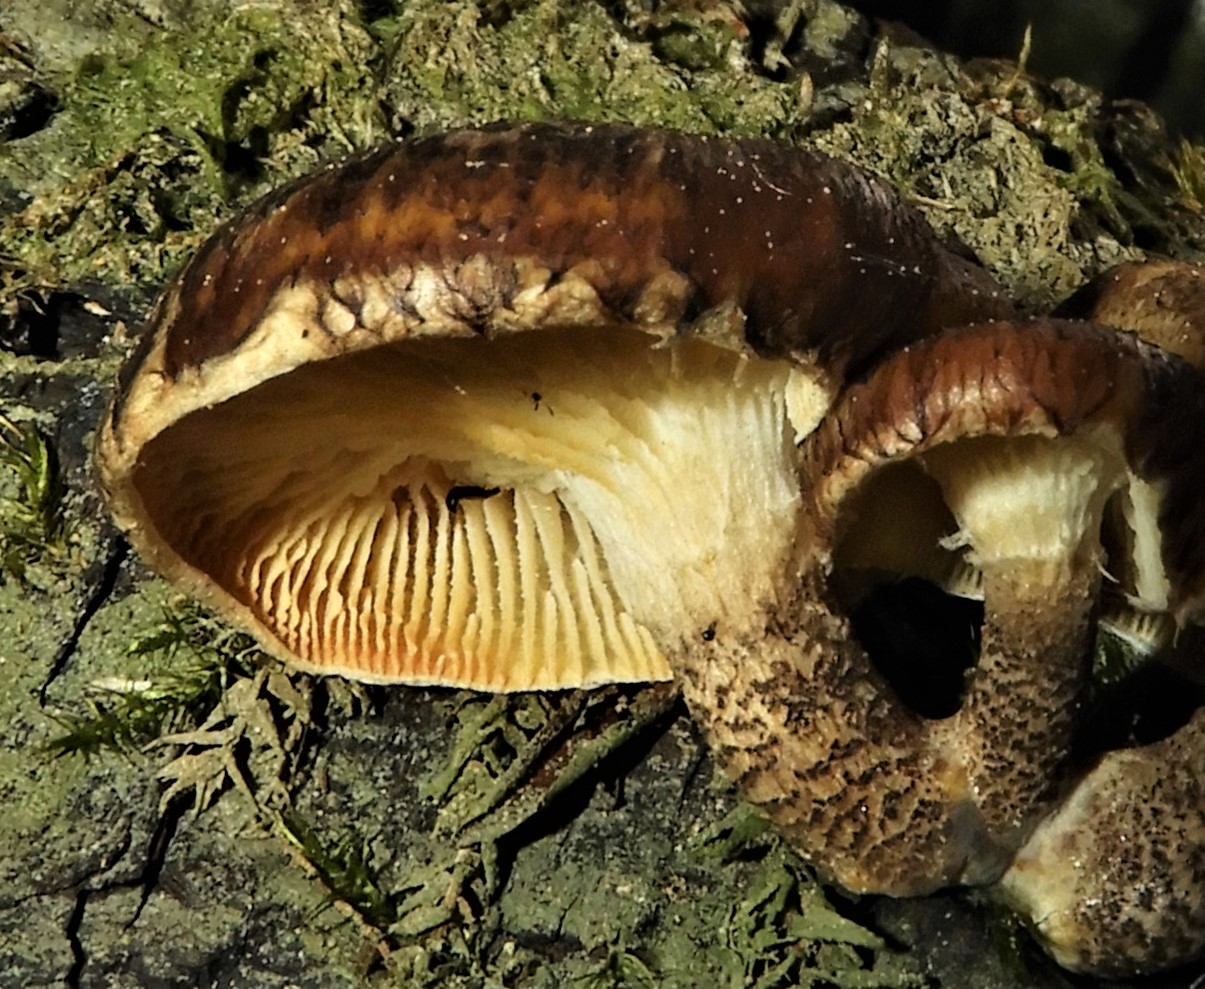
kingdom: Fungi
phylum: Basidiomycota
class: Agaricomycetes
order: Polyporales
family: Polyporaceae
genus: Lentinus
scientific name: Lentinus tigrinus
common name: tigerhat
